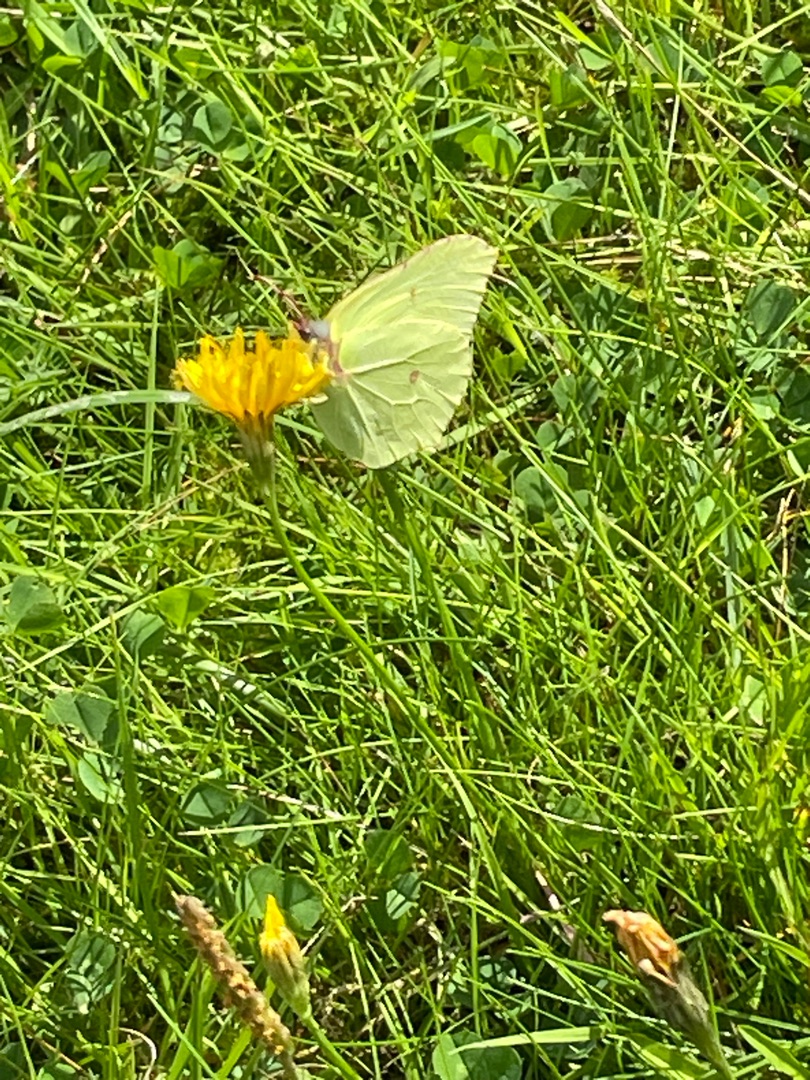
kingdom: Animalia
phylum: Arthropoda
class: Insecta
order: Lepidoptera
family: Pieridae
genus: Gonepteryx
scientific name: Gonepteryx rhamni
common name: Citronsommerfugl
